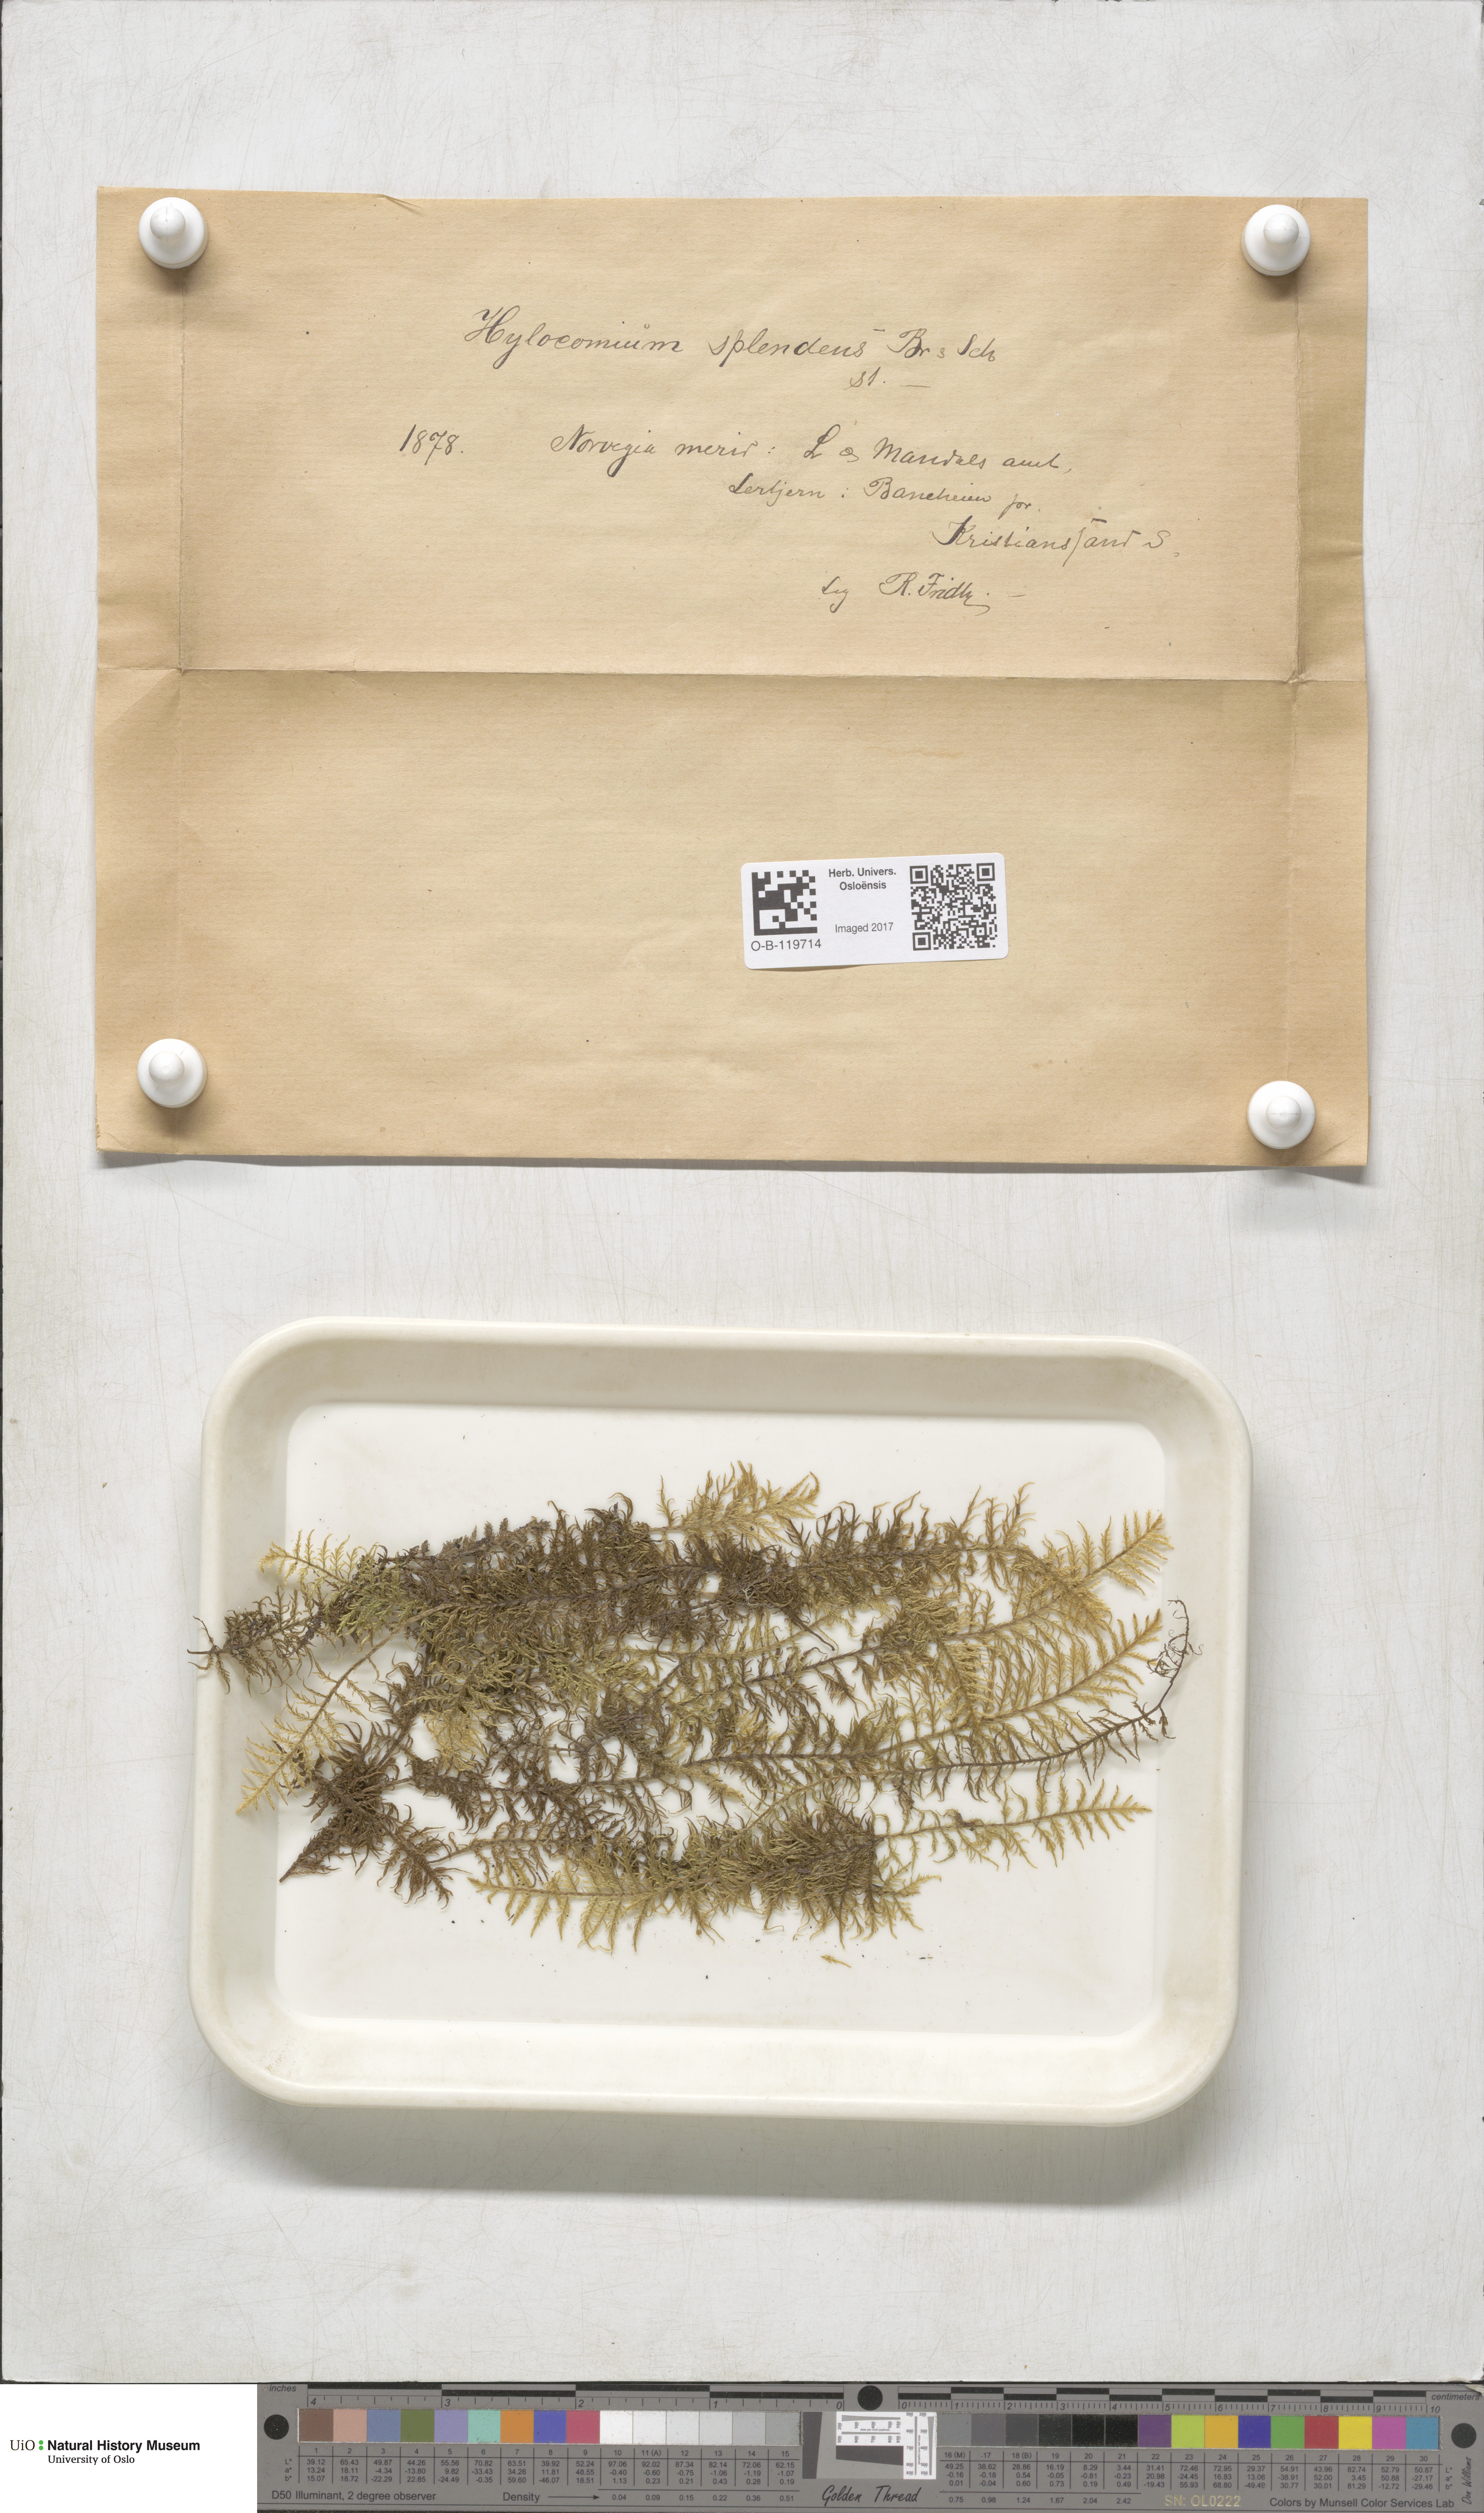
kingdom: Plantae
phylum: Bryophyta
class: Bryopsida
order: Hypnales
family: Hylocomiaceae
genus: Hylocomium
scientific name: Hylocomium splendens
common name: Stairstep moss
